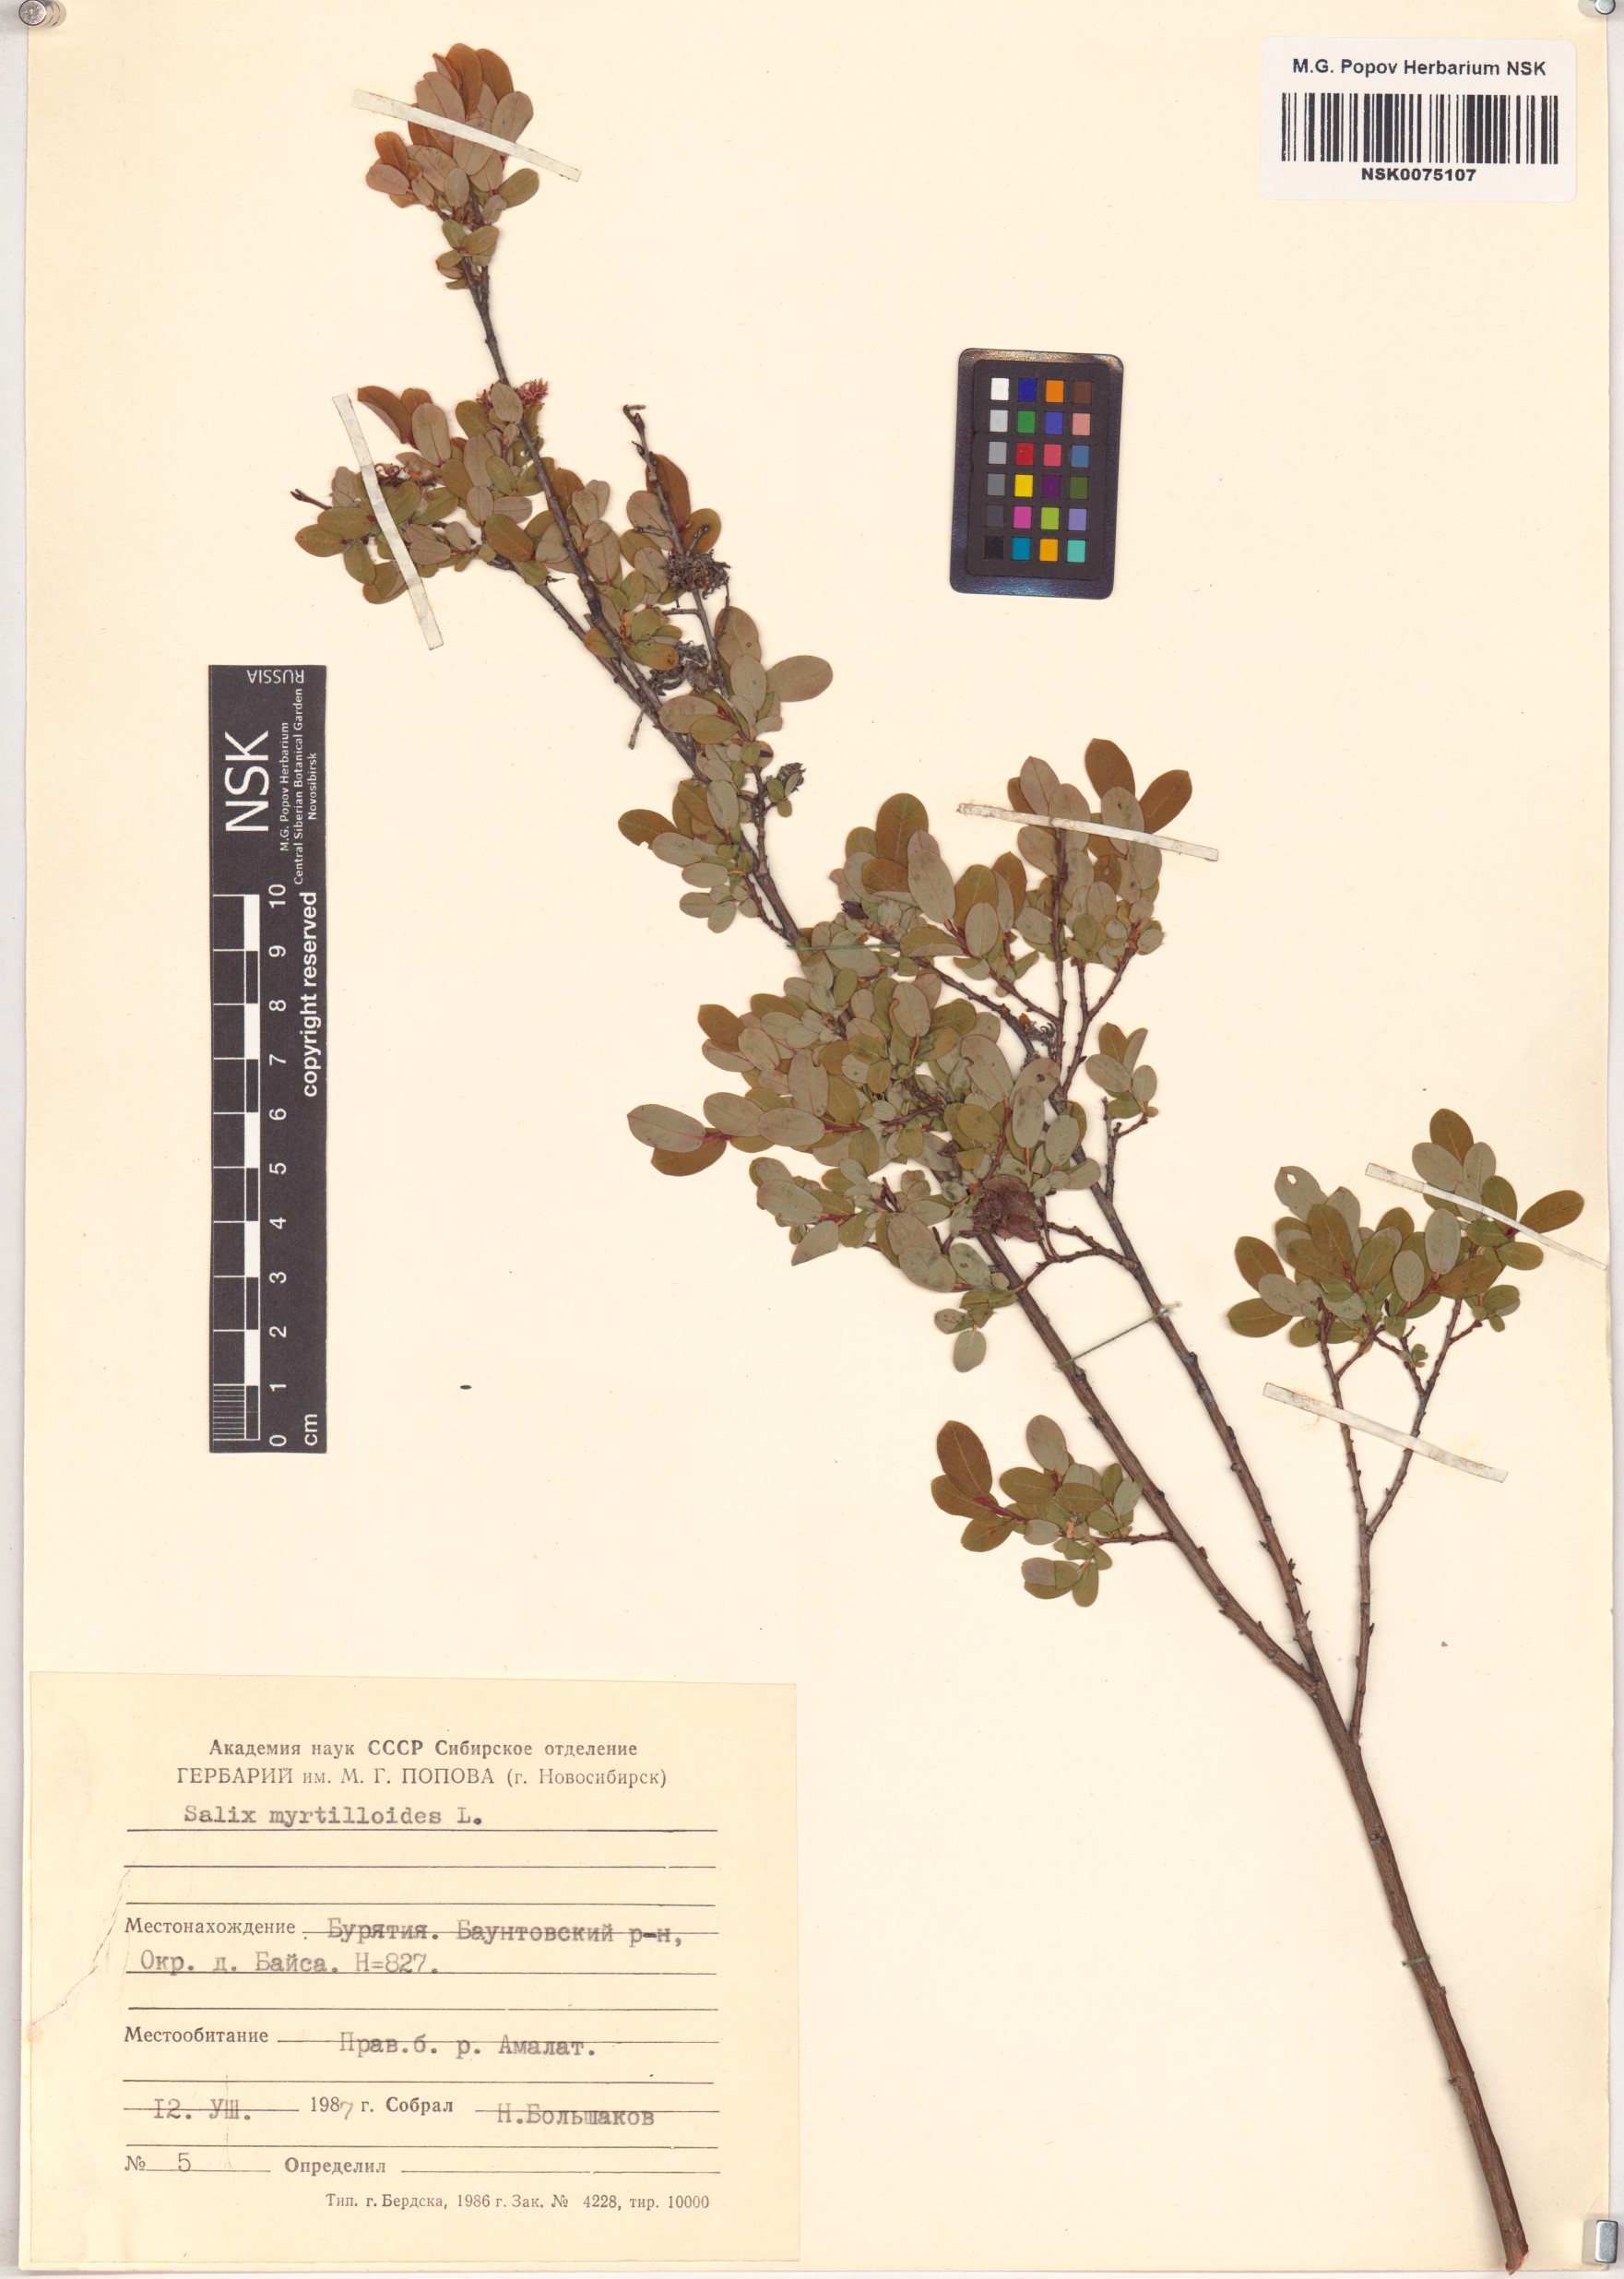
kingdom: Plantae
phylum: Tracheophyta
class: Magnoliopsida
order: Malpighiales
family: Salicaceae
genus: Salix
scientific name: Salix myrtilloides
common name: Myrtle-leaved willow
